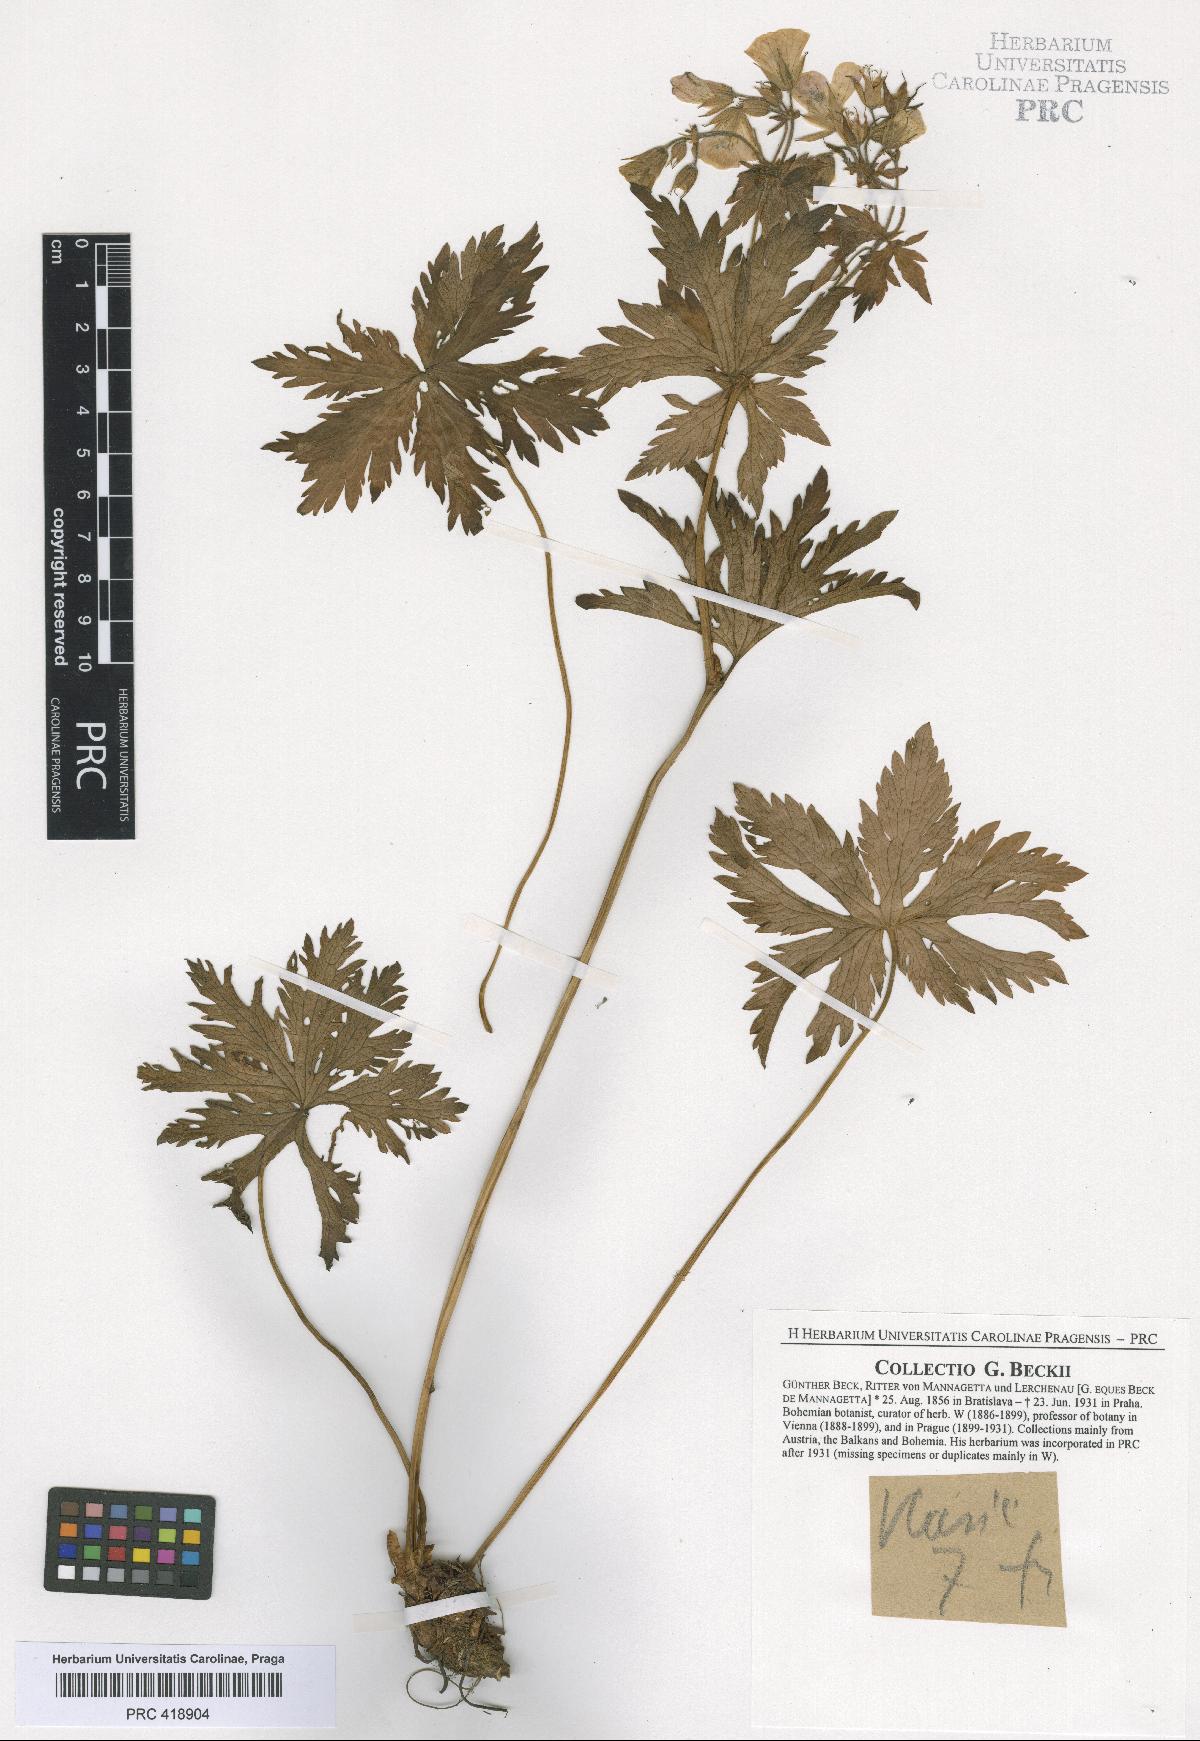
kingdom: Plantae
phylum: Tracheophyta
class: Magnoliopsida
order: Geraniales
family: Geraniaceae
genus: Geranium
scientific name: Geranium sylvaticum
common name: Wood crane's-bill
